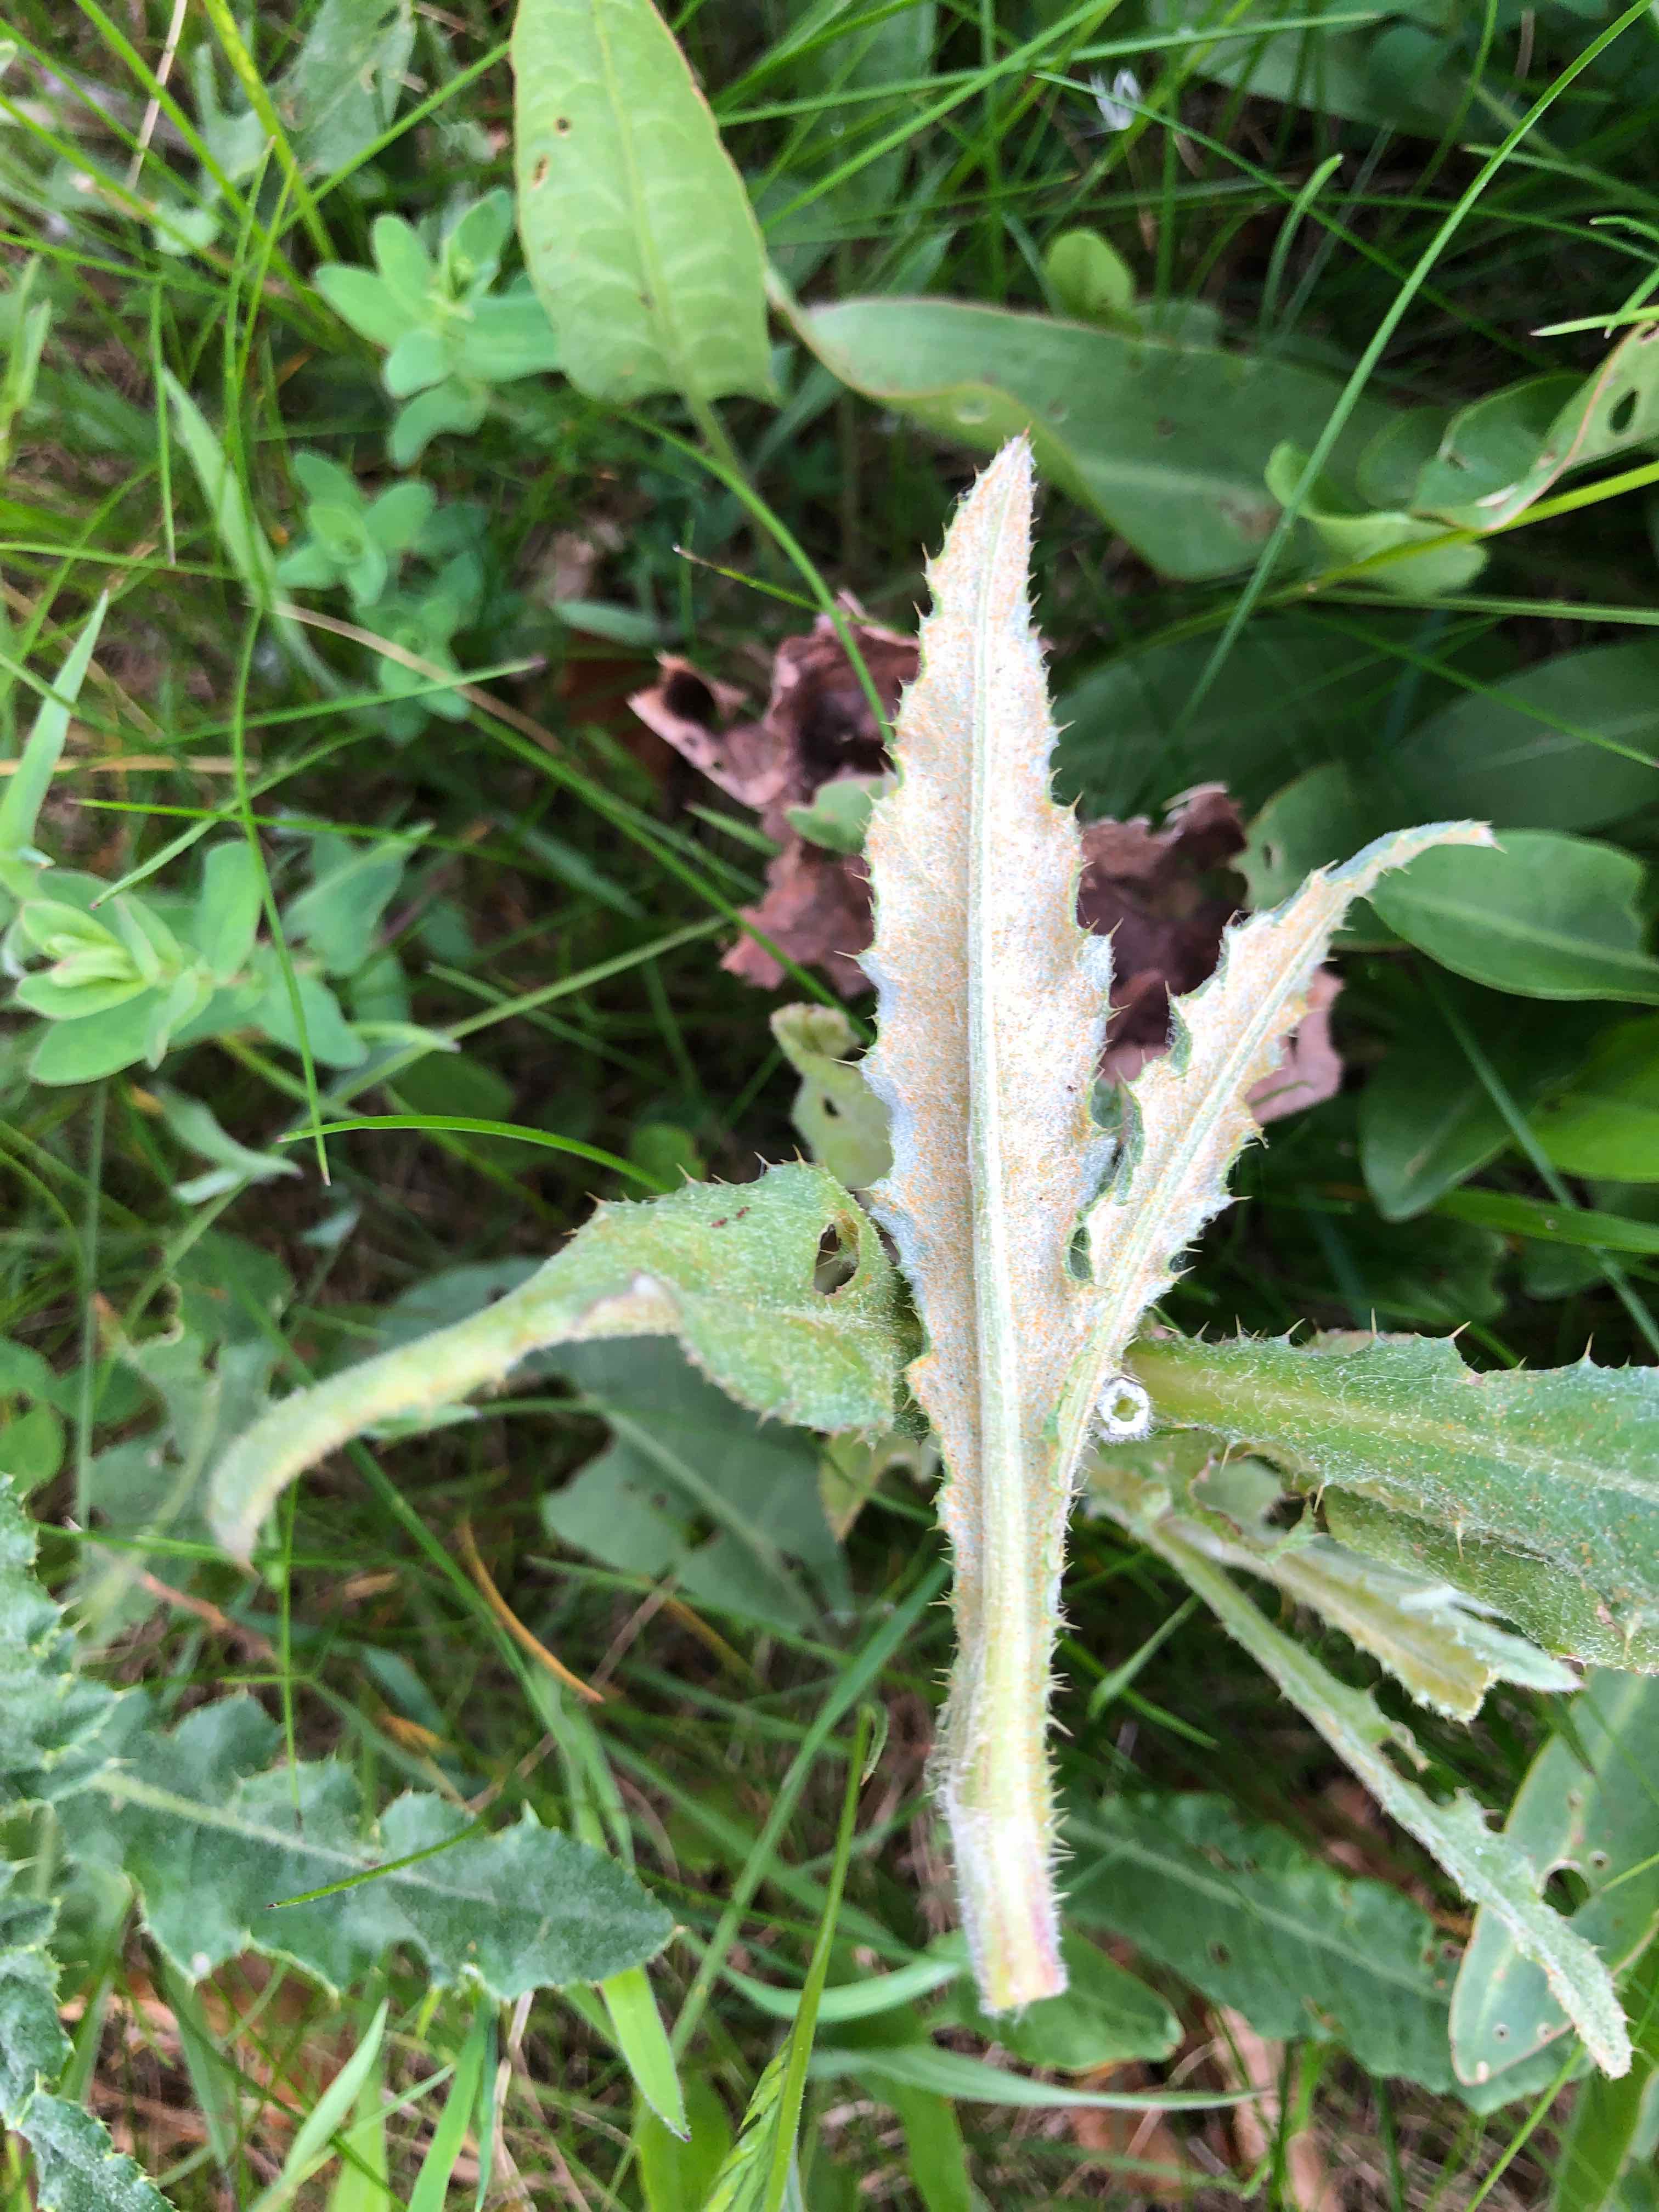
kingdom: Fungi
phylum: Basidiomycota
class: Pucciniomycetes
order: Pucciniales
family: Pucciniaceae
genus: Puccinia
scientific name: Puccinia suaveolens
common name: tidsel-tvecellerust
